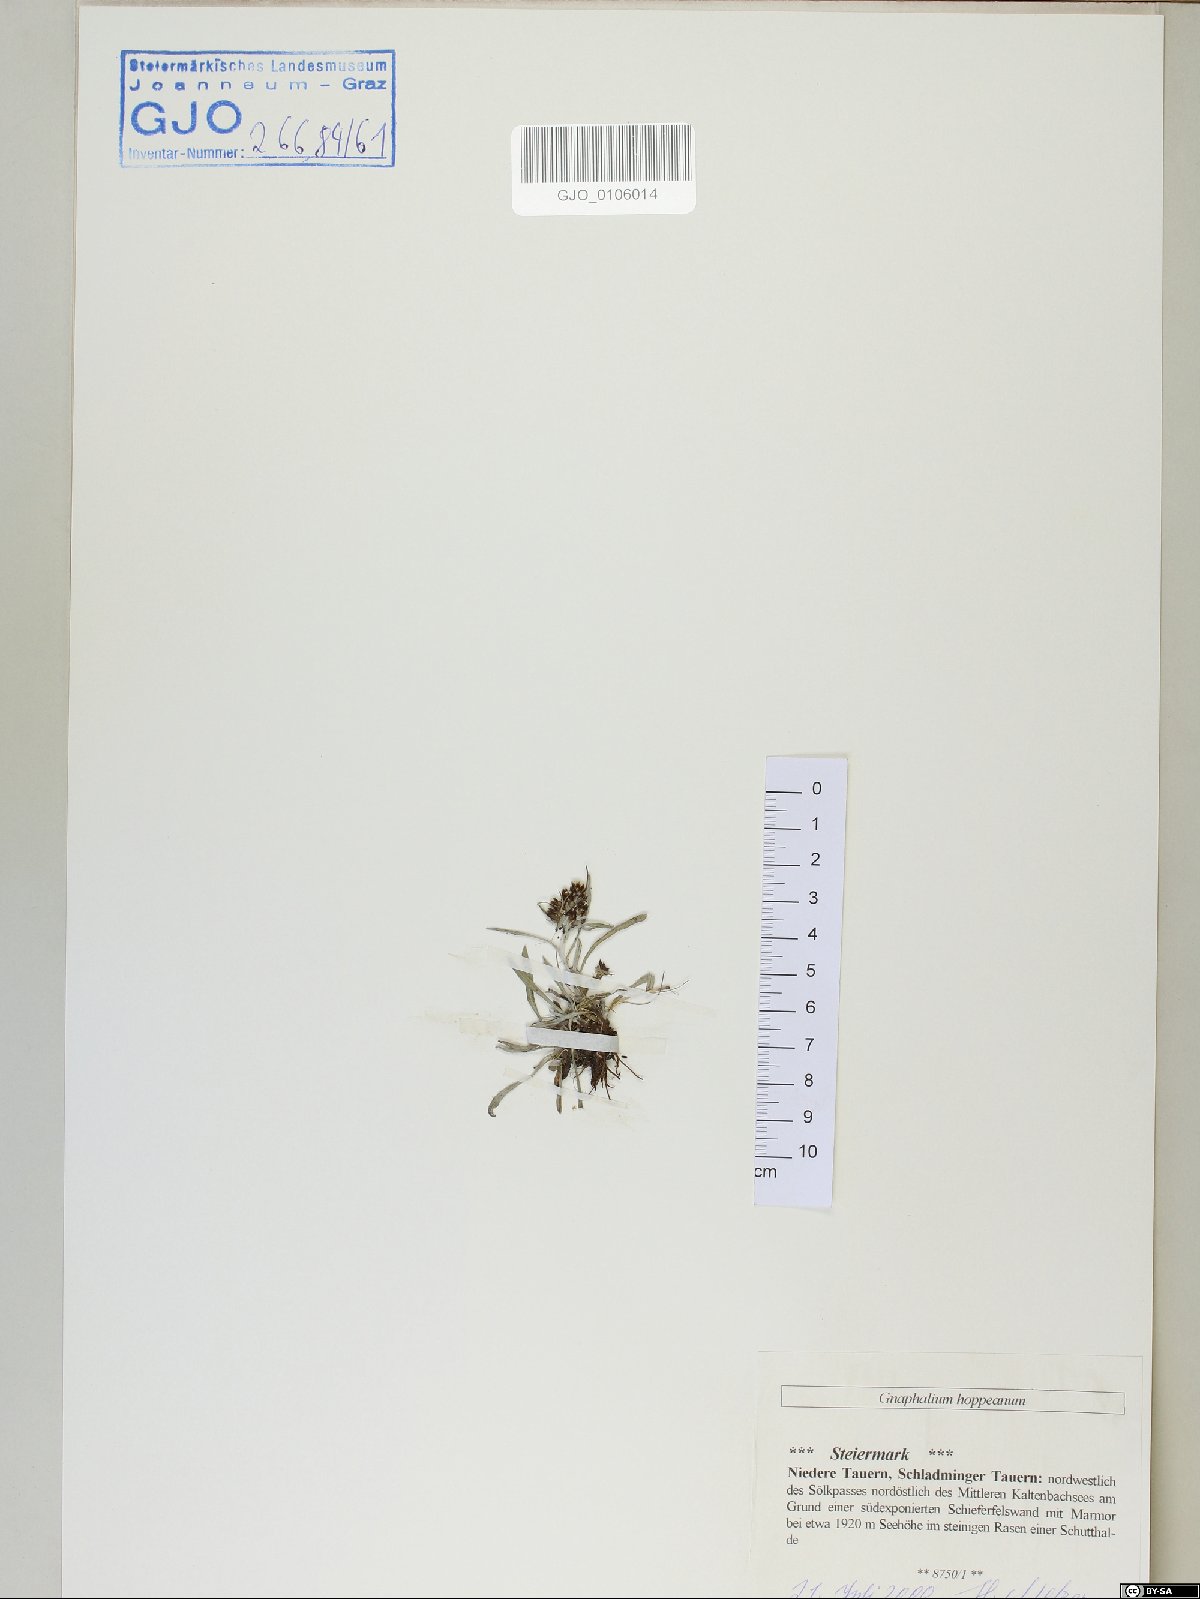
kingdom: Plantae
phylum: Tracheophyta
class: Magnoliopsida
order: Asterales
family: Asteraceae
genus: Omalotheca
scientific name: Omalotheca hoppeana
